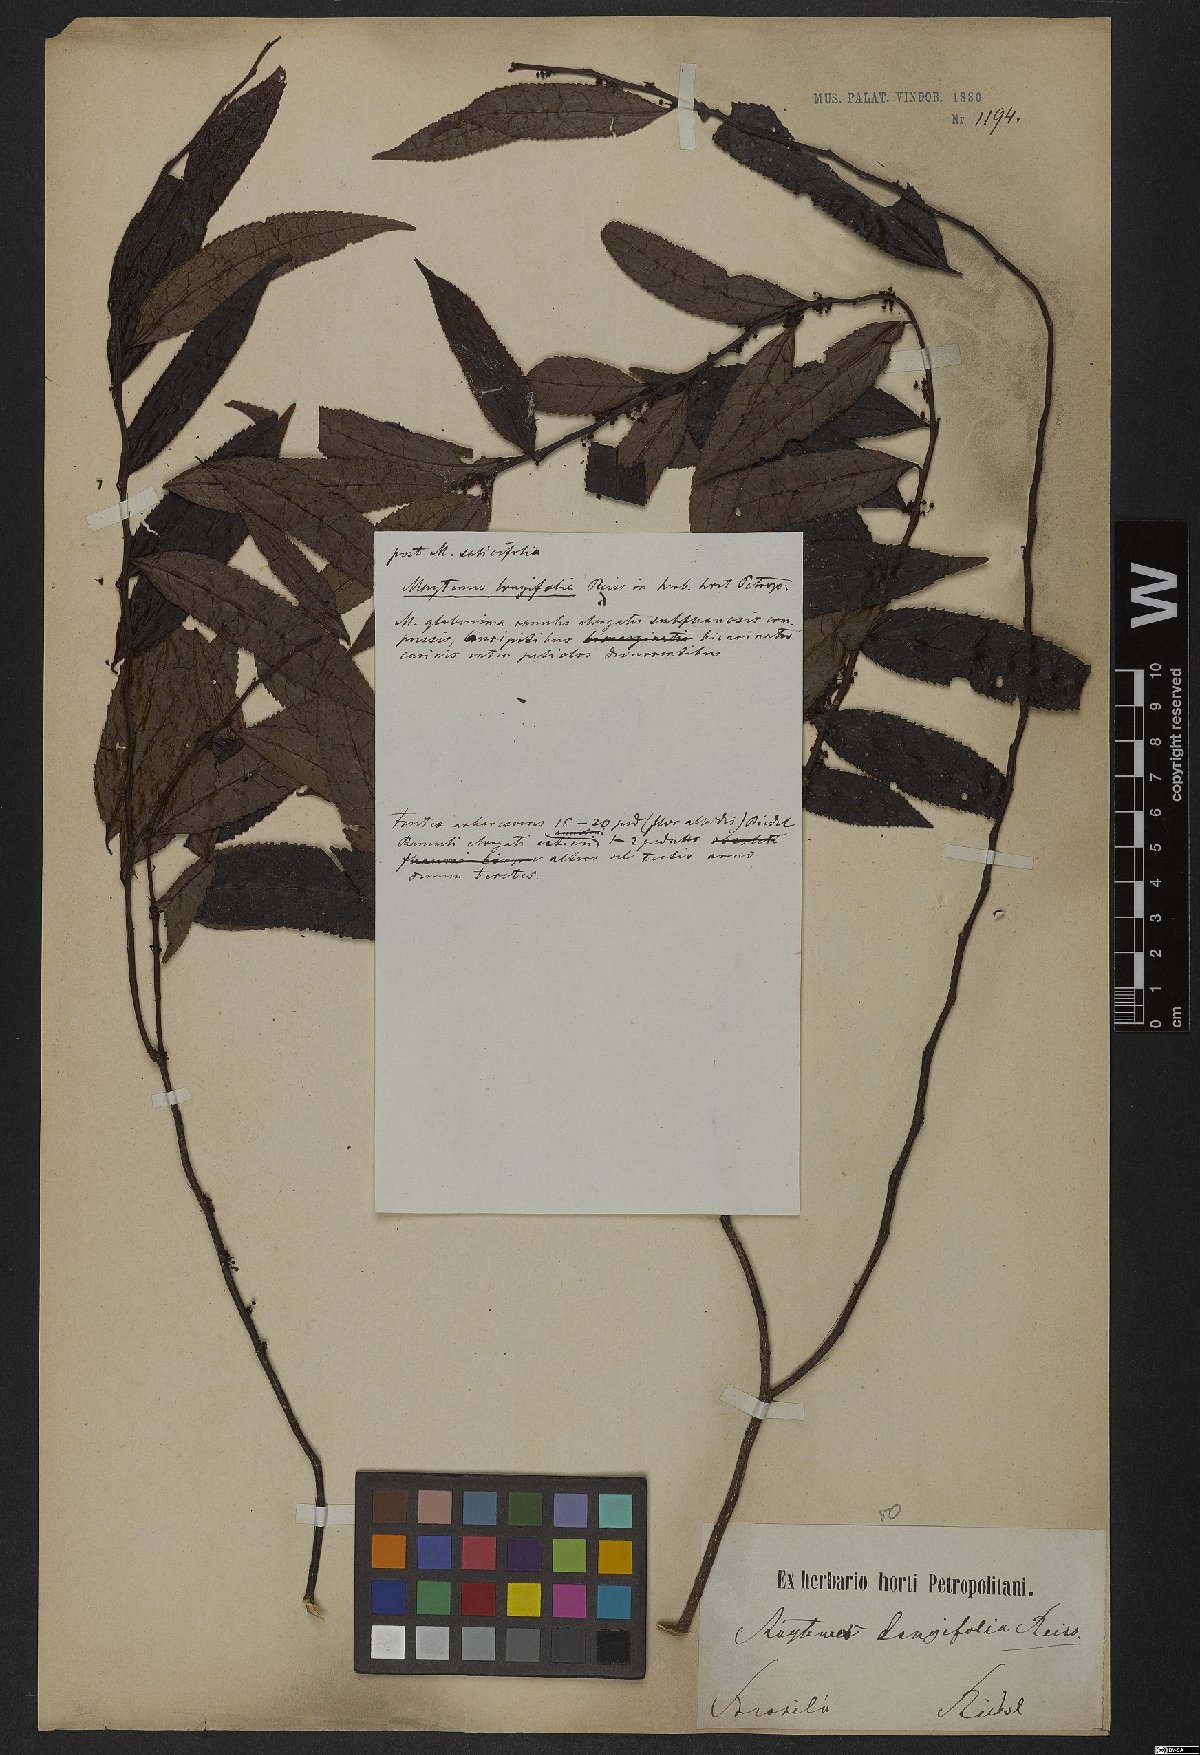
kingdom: Plantae
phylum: Tracheophyta
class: Magnoliopsida
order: Celastrales
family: Celastraceae
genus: Monteverdia
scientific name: Monteverdia longifolia
